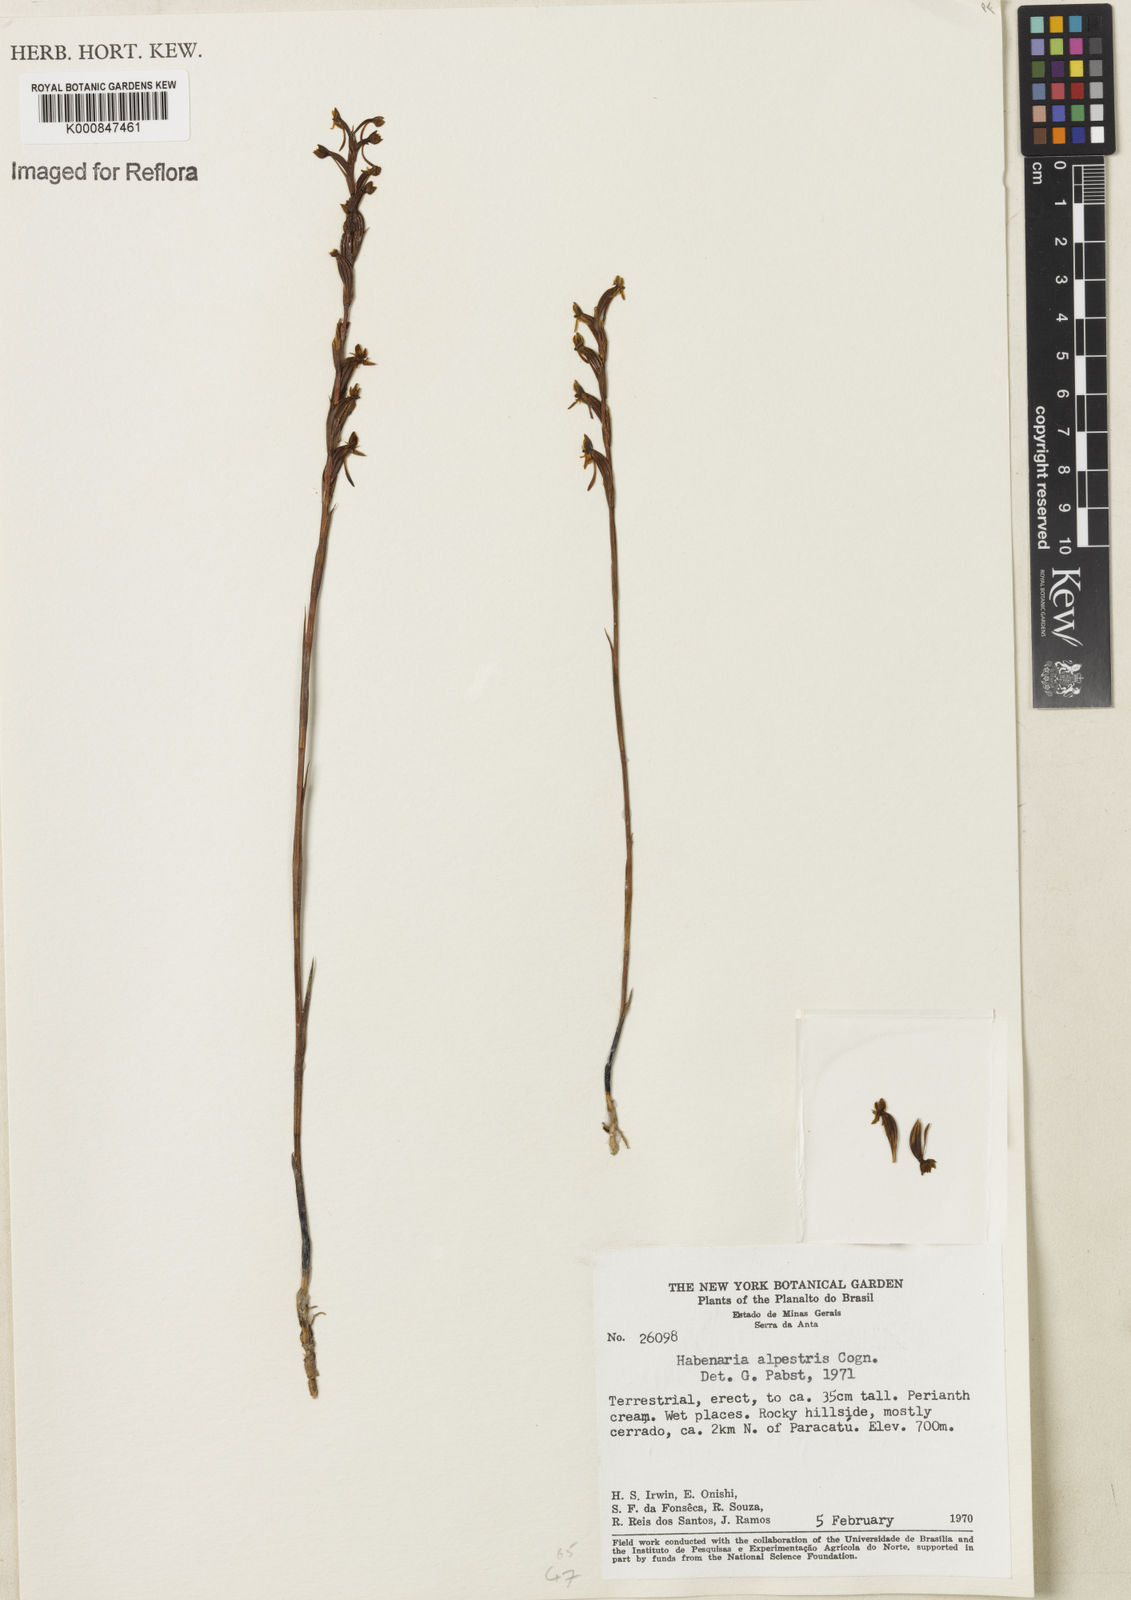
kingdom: Plantae
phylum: Tracheophyta
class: Liliopsida
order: Asparagales
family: Orchidaceae
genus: Habenaria
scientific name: Habenaria alpestris
